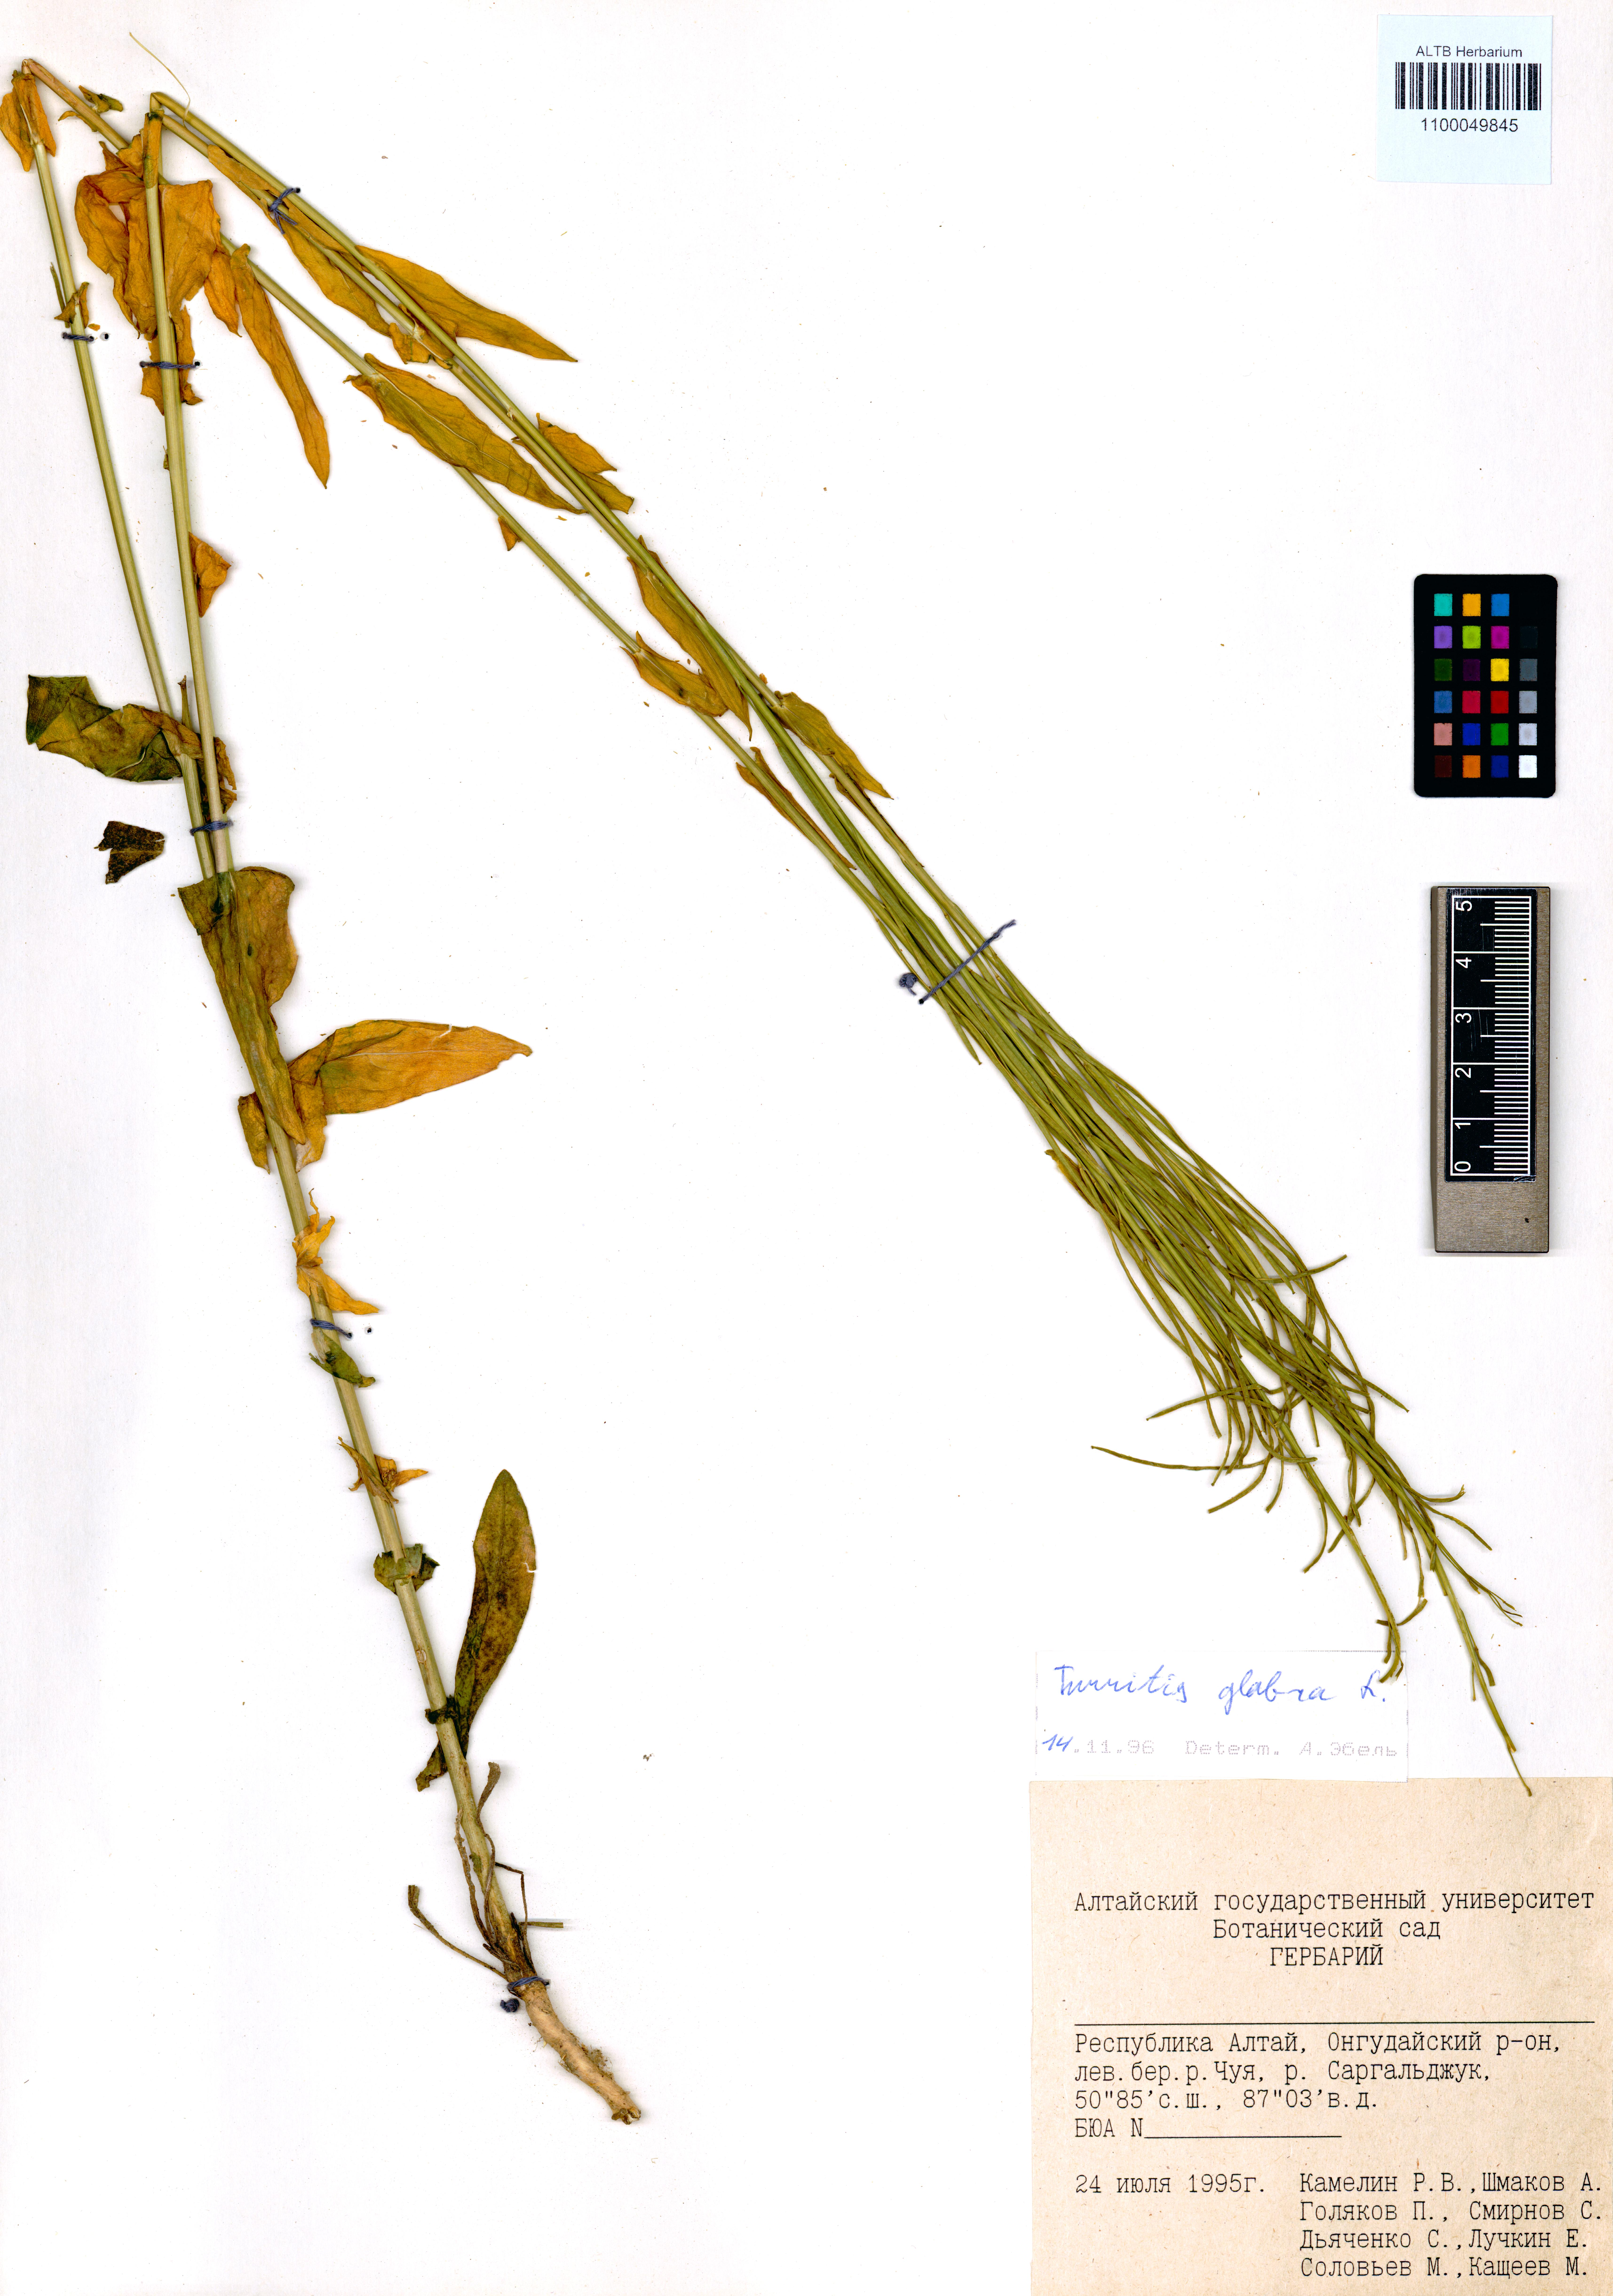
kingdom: Plantae
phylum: Tracheophyta
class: Magnoliopsida
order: Brassicales
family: Brassicaceae
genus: Turritis
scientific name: Turritis glabra
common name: Tower rockcress
